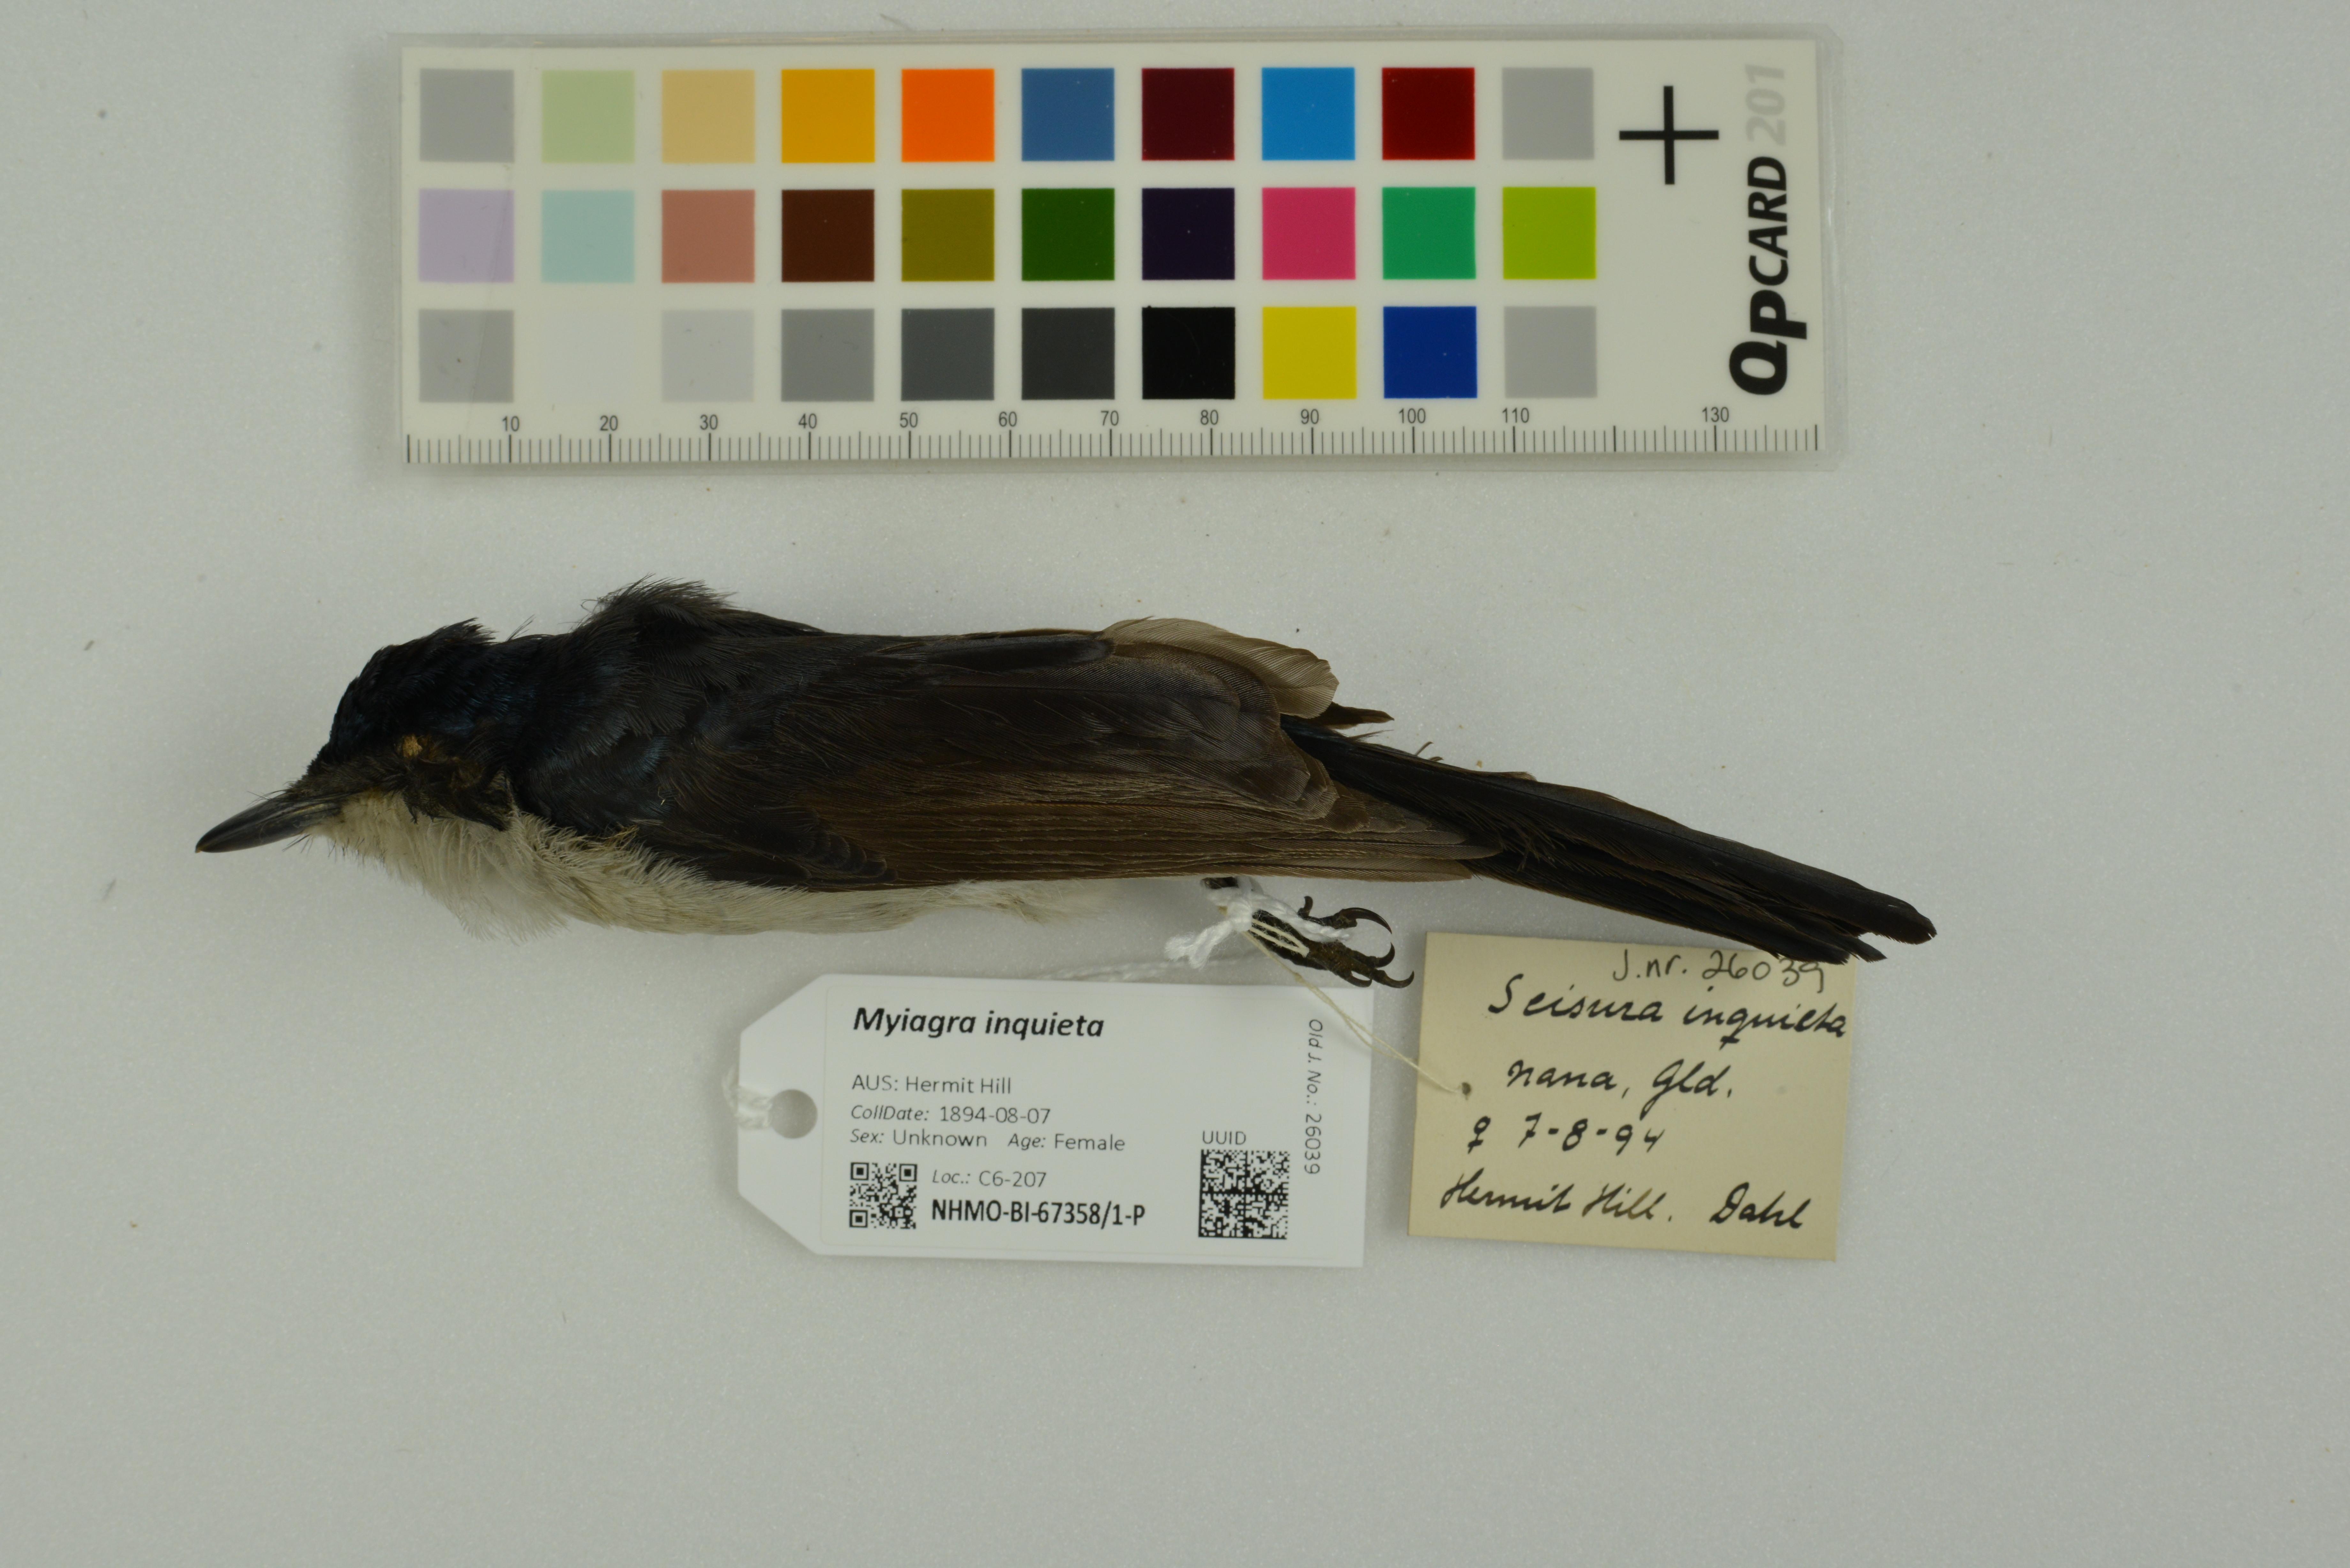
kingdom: Animalia
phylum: Chordata
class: Aves
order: Passeriformes
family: Monarchidae
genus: Myiagra
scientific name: Myiagra inquieta
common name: Restless flycatcher
